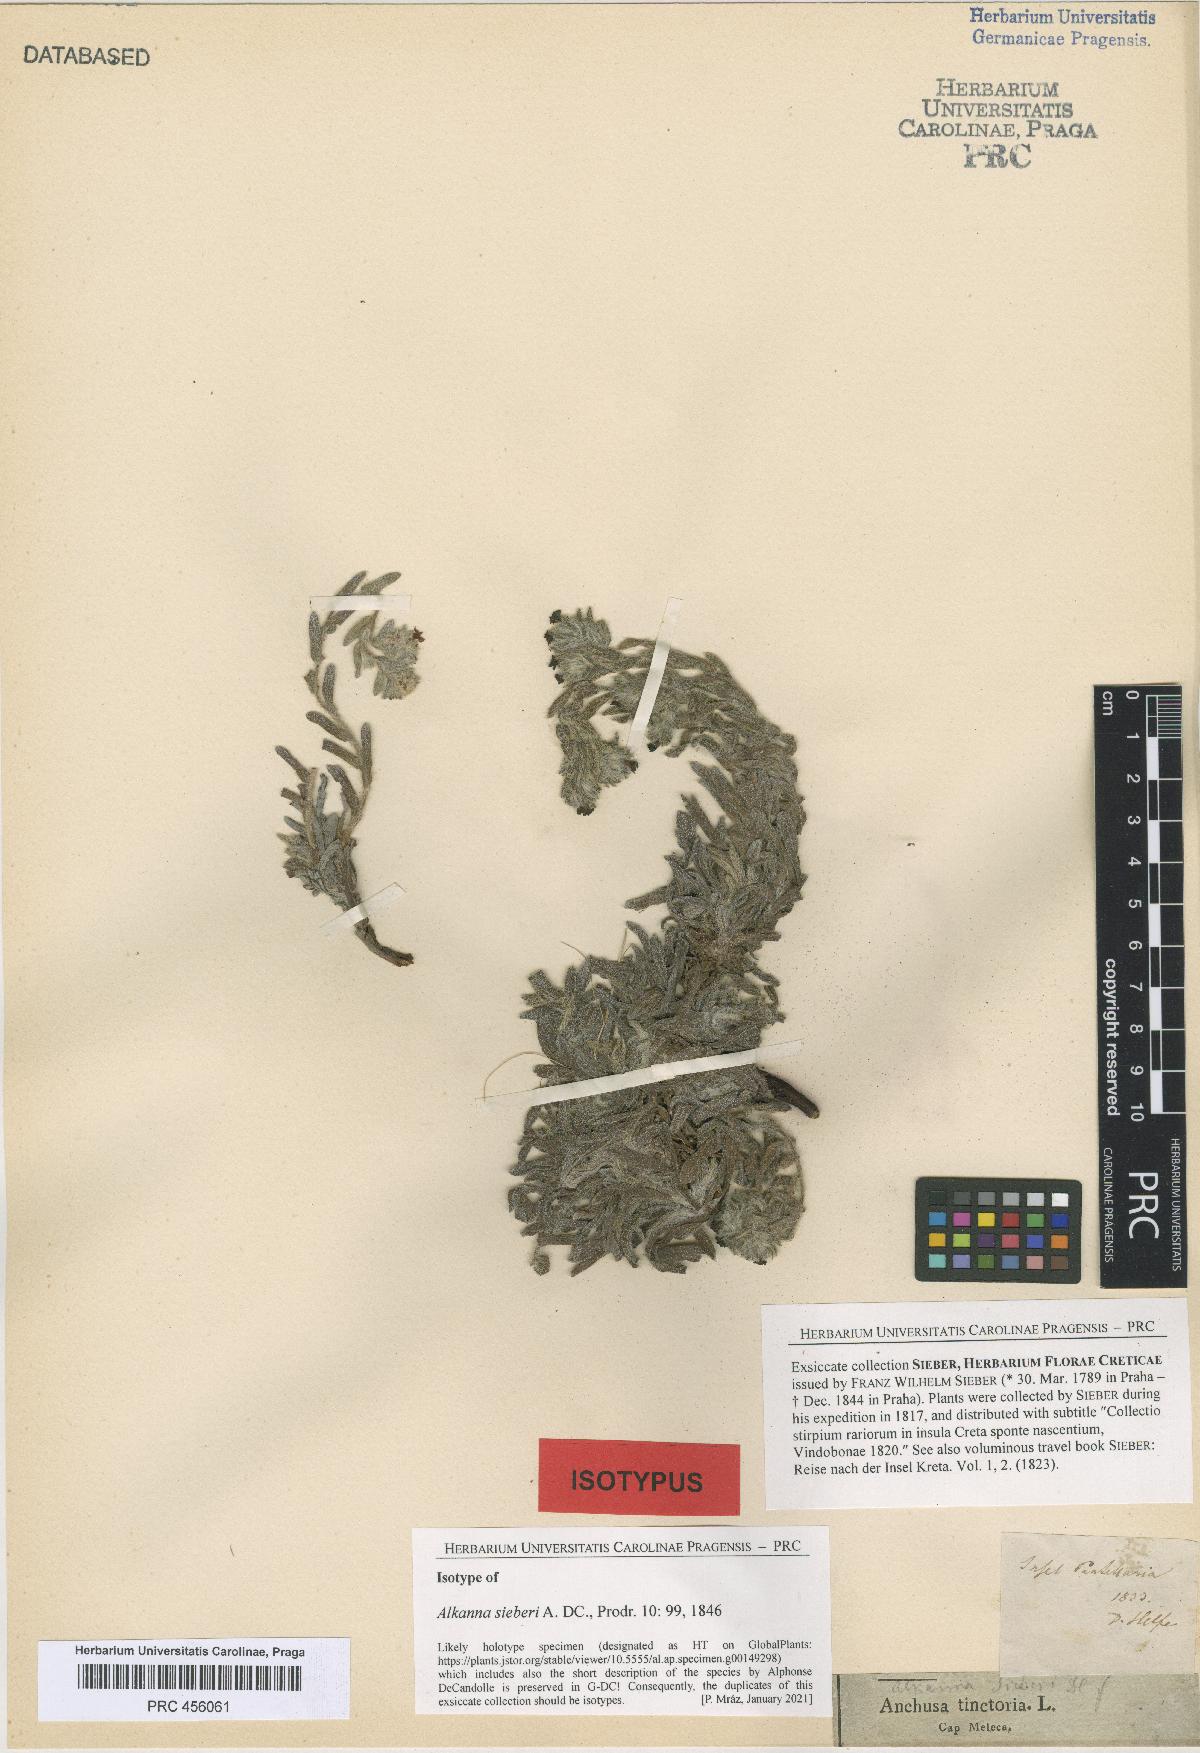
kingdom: Plantae
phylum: Tracheophyta
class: Magnoliopsida
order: Boraginales
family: Boraginaceae
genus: Alkanna
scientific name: Alkanna sieberi
